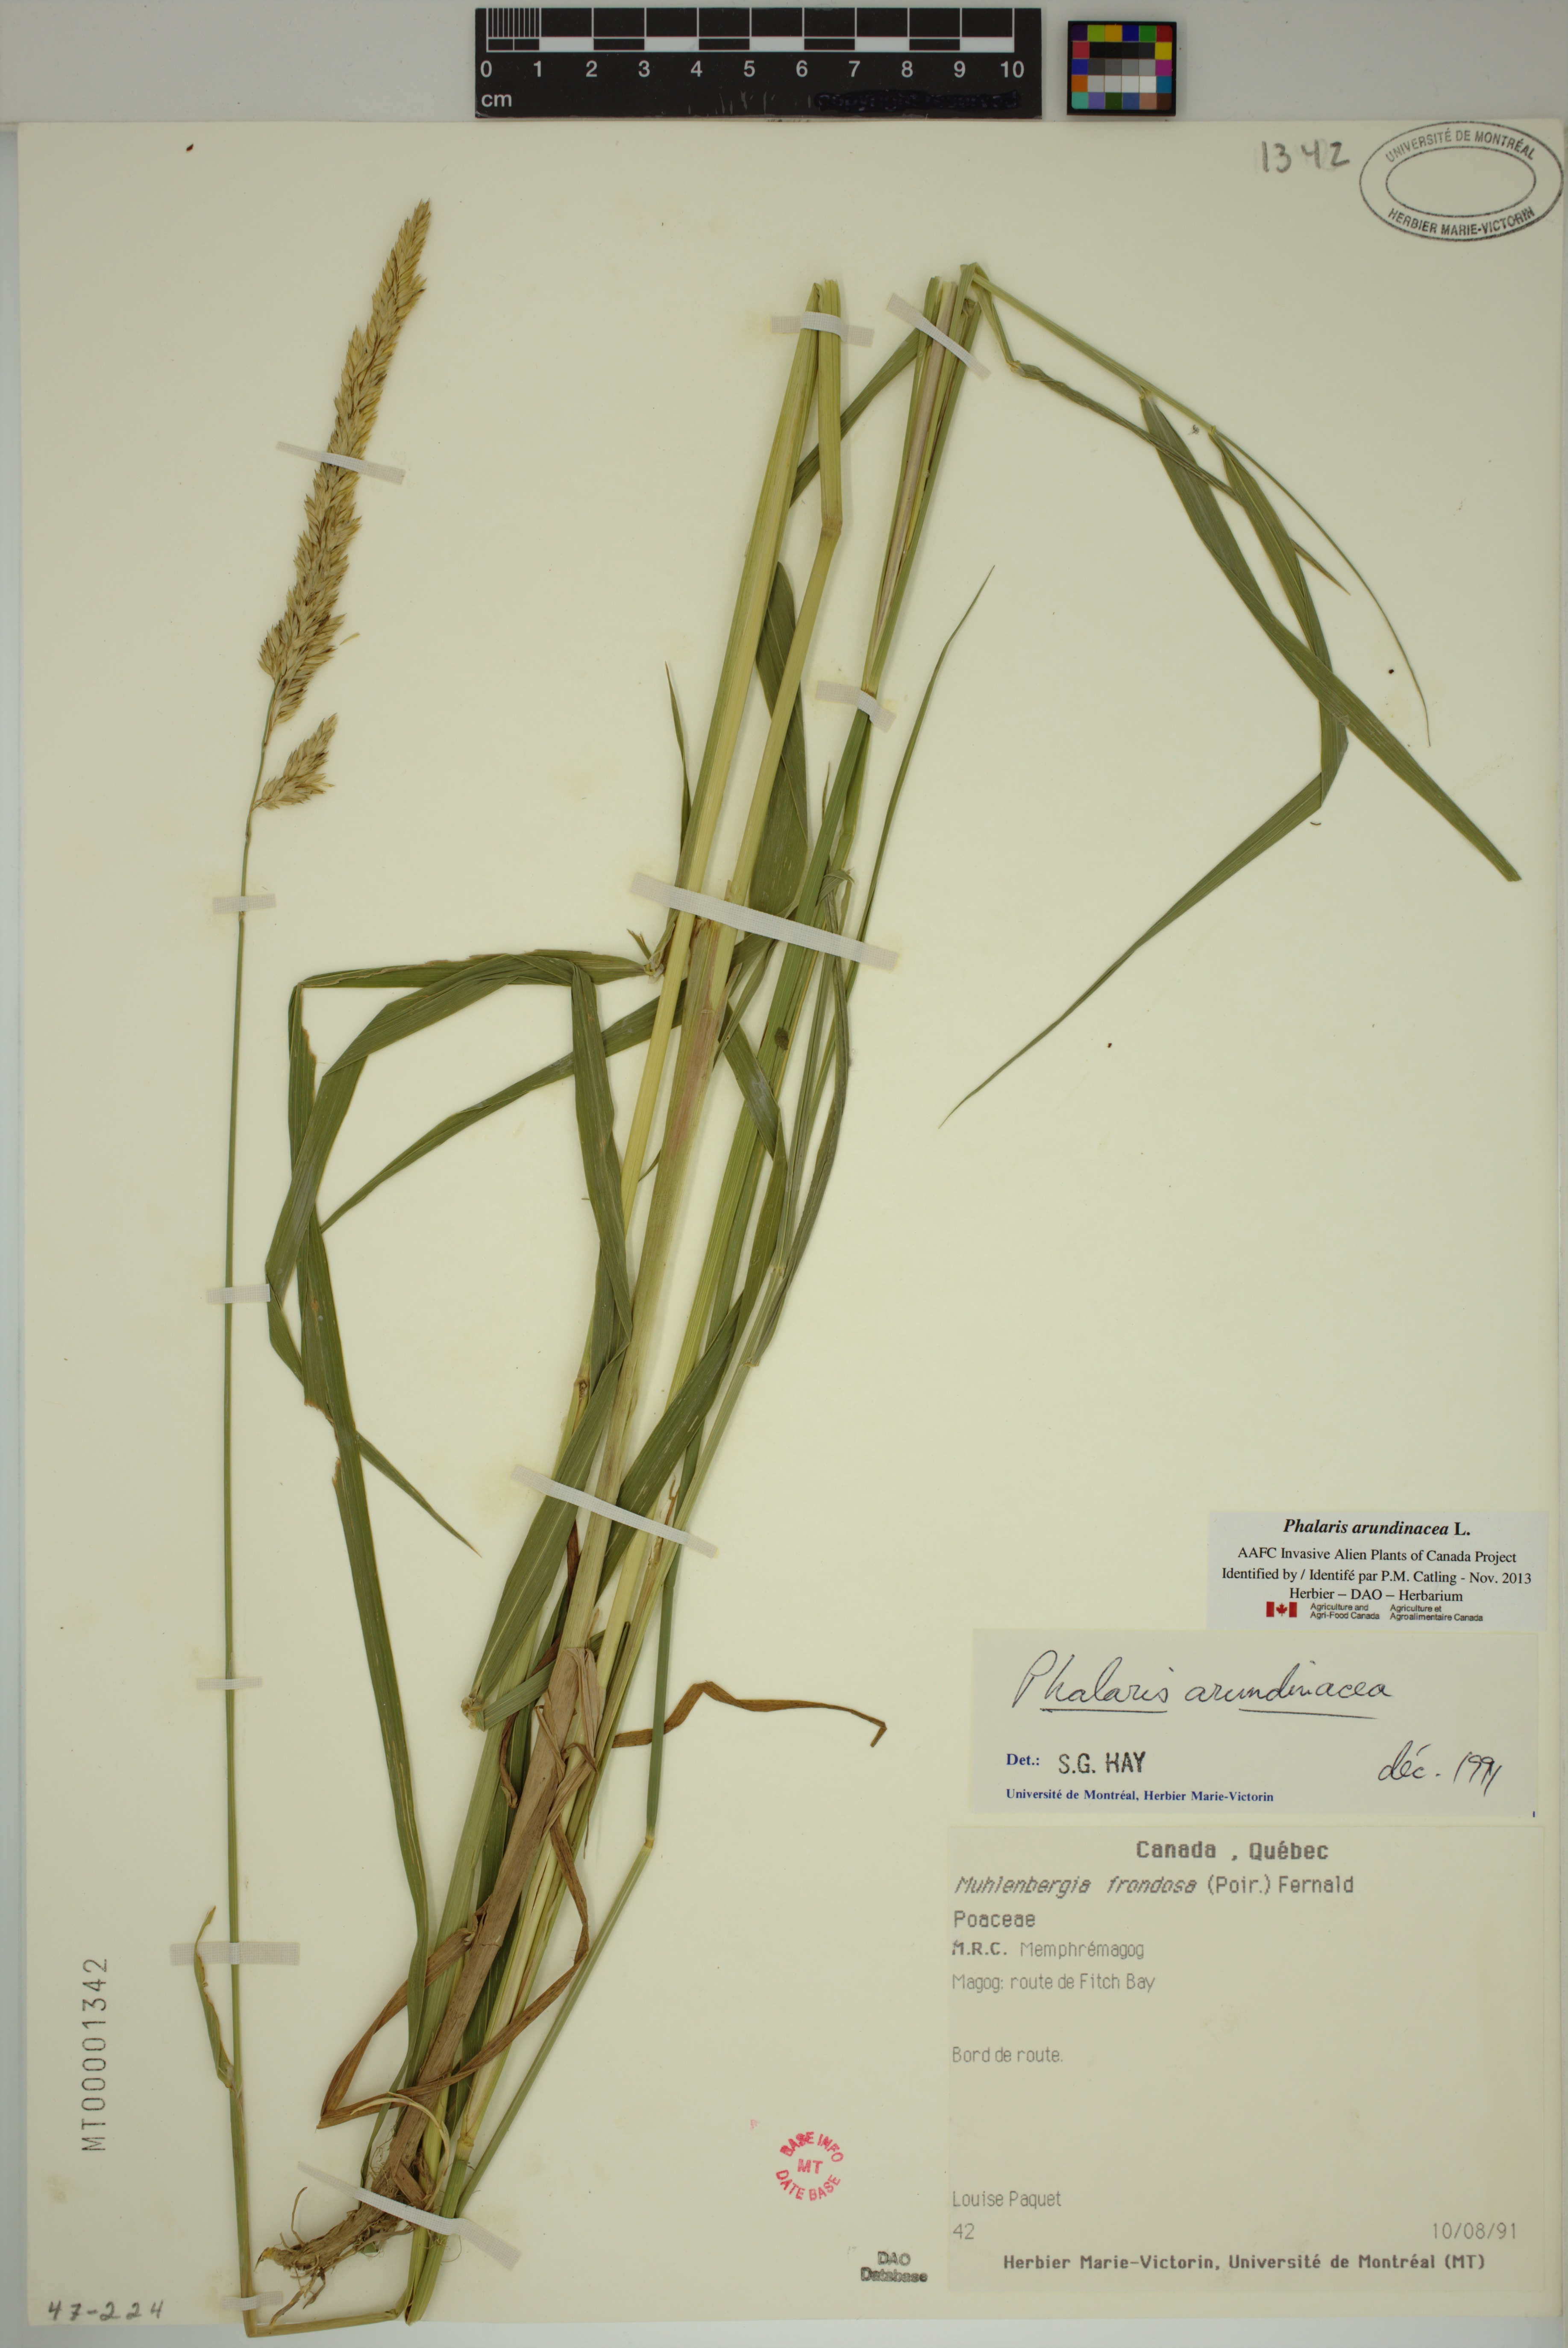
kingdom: Plantae
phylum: Tracheophyta
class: Liliopsida
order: Poales
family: Poaceae
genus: Phalaris
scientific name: Phalaris arundinacea
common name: Reed canary-grass
